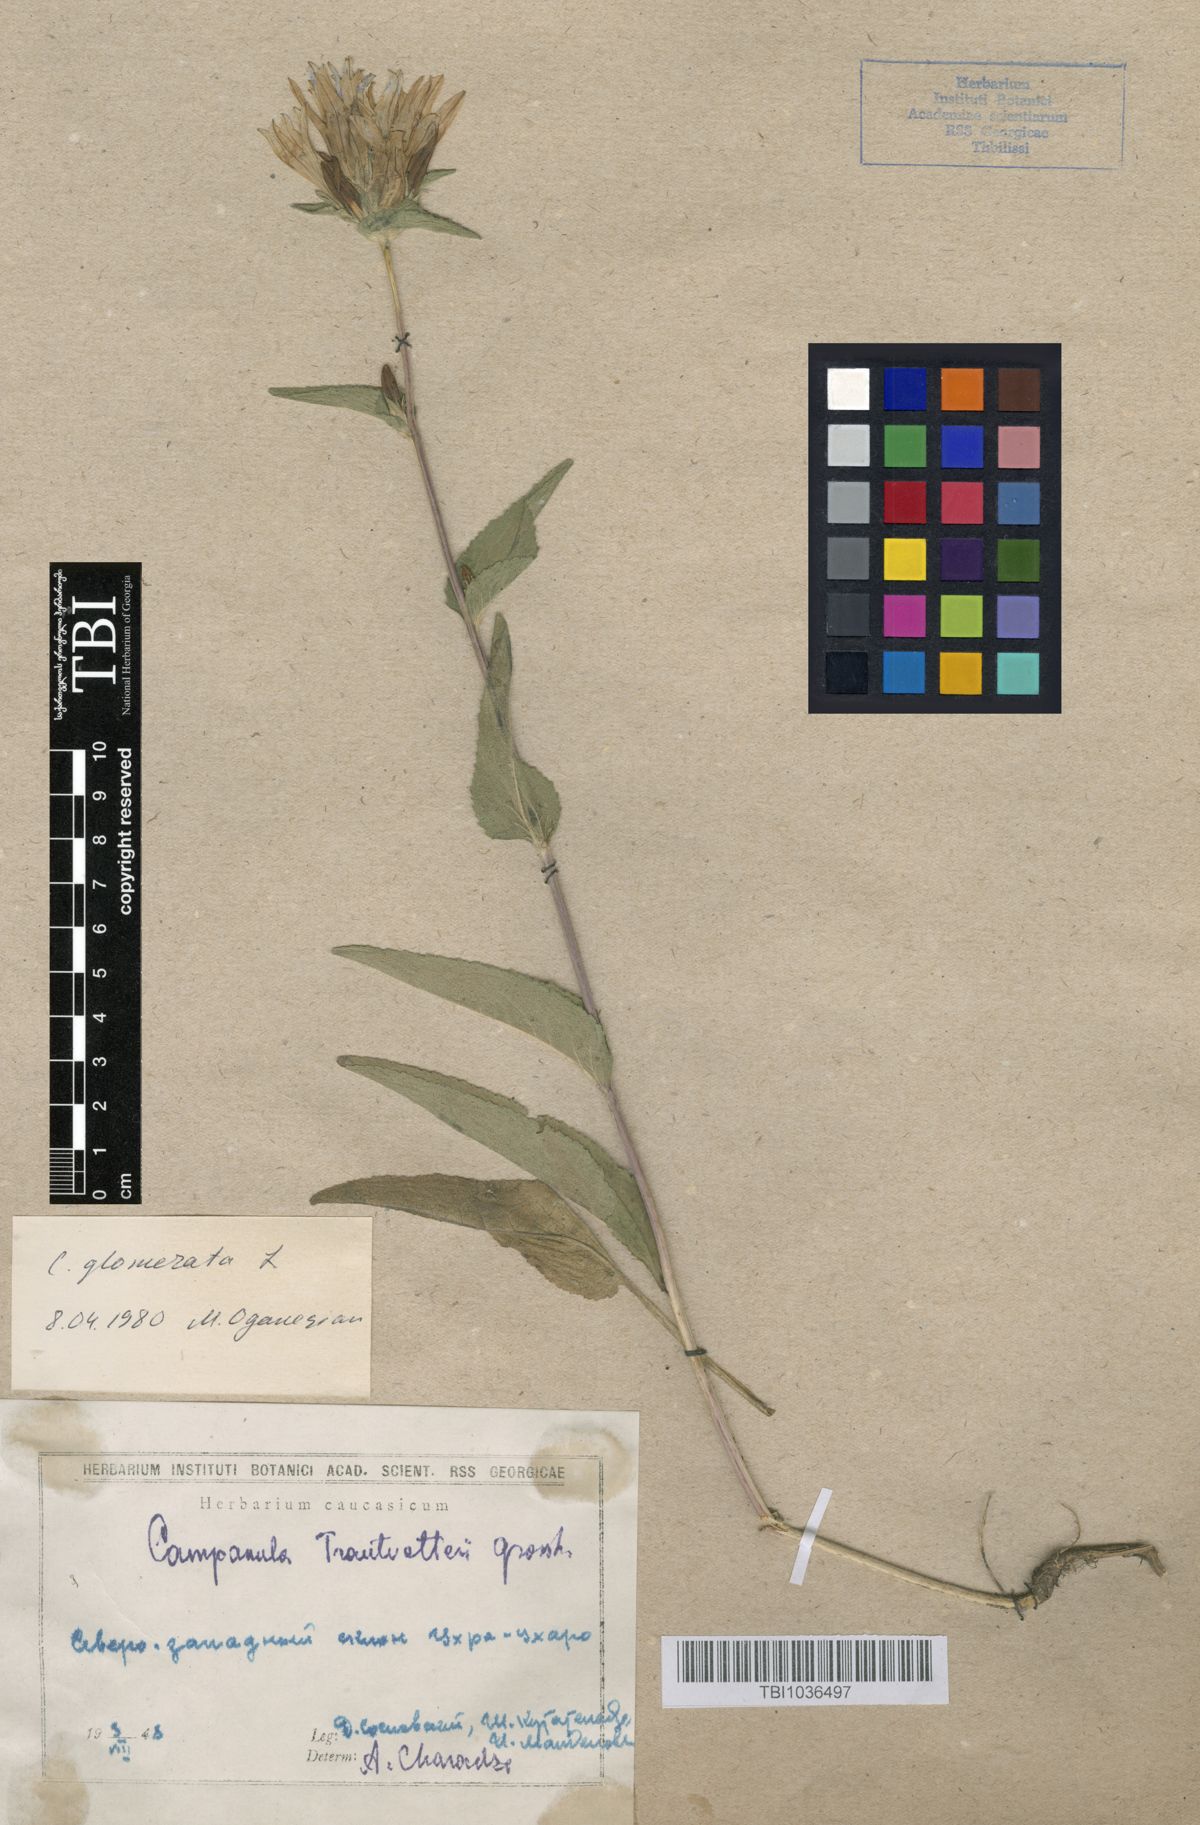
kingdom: Plantae
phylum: Tracheophyta
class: Magnoliopsida
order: Asterales
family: Campanulaceae
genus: Campanula
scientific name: Campanula glomerata
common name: Clustered bellflower
